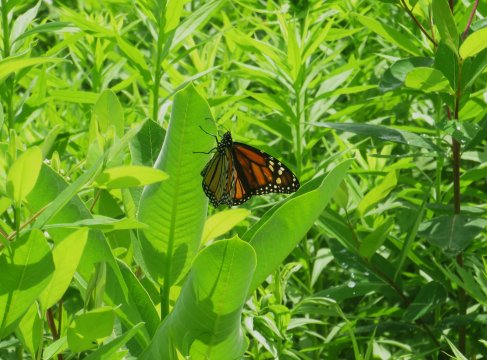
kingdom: Animalia
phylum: Arthropoda
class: Insecta
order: Lepidoptera
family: Nymphalidae
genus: Danaus
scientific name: Danaus plexippus
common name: Monarch
